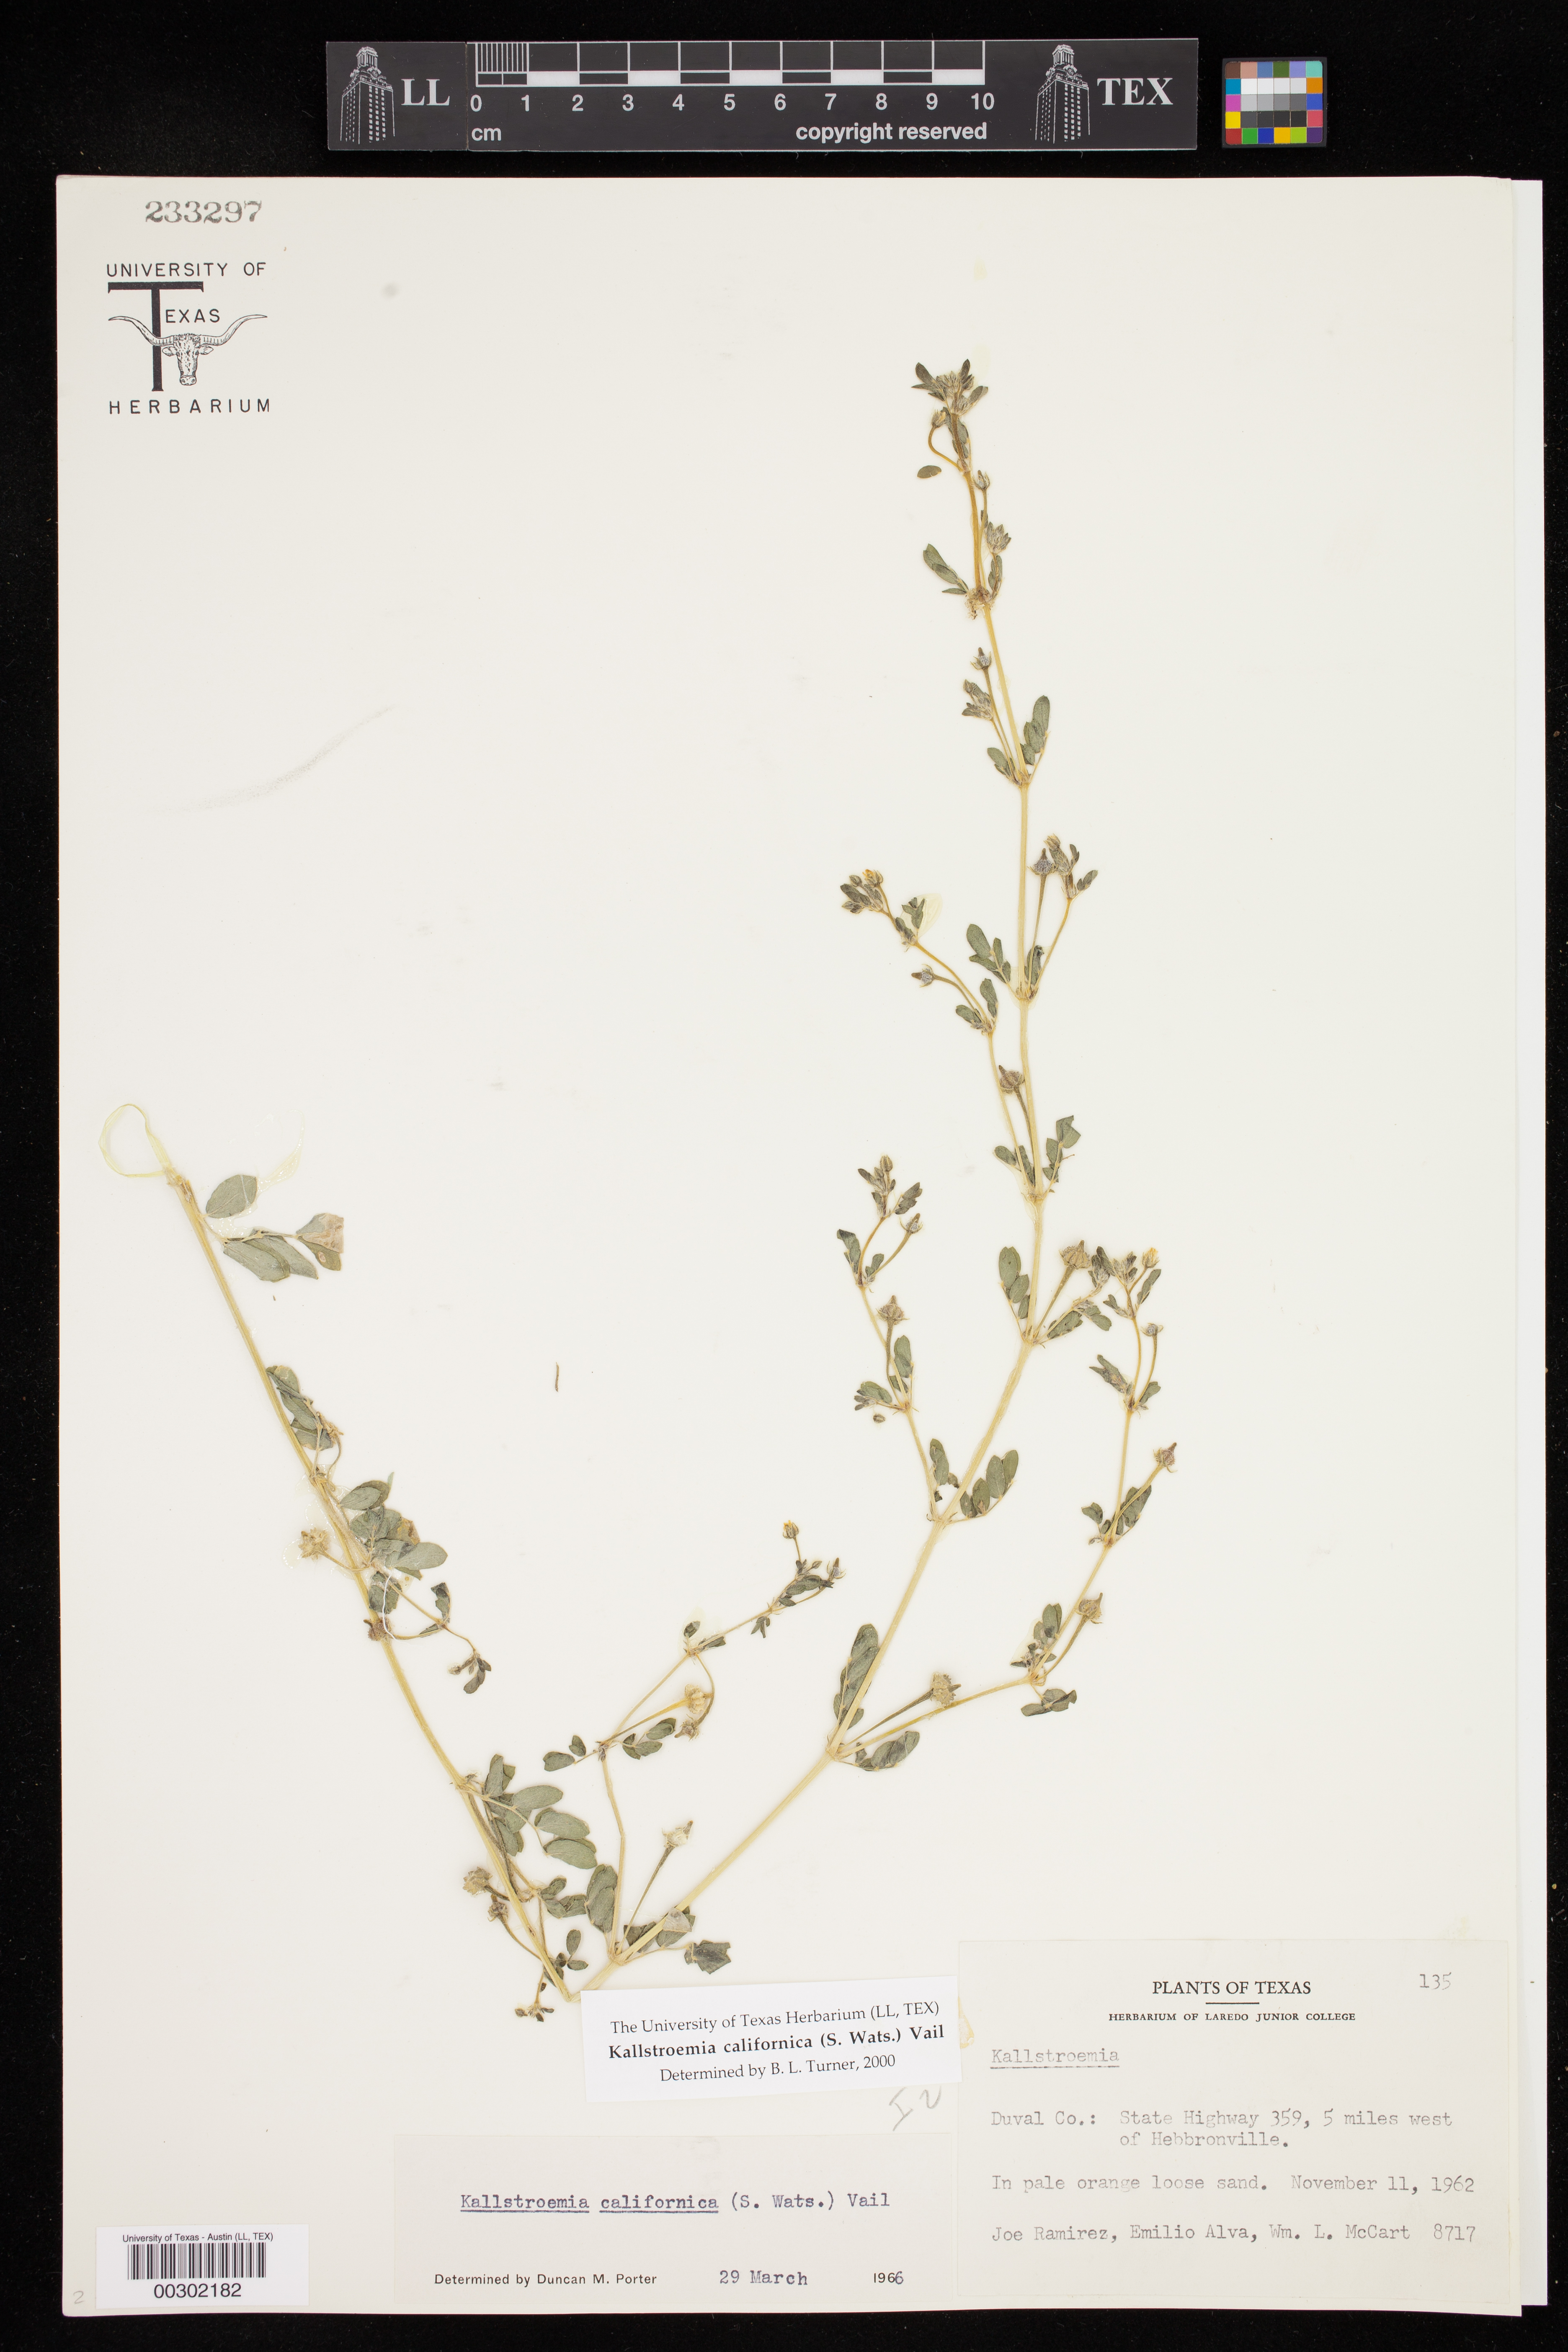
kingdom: Plantae
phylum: Tracheophyta
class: Magnoliopsida
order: Zygophyllales
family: Zygophyllaceae
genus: Kallstroemia
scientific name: Kallstroemia californica
